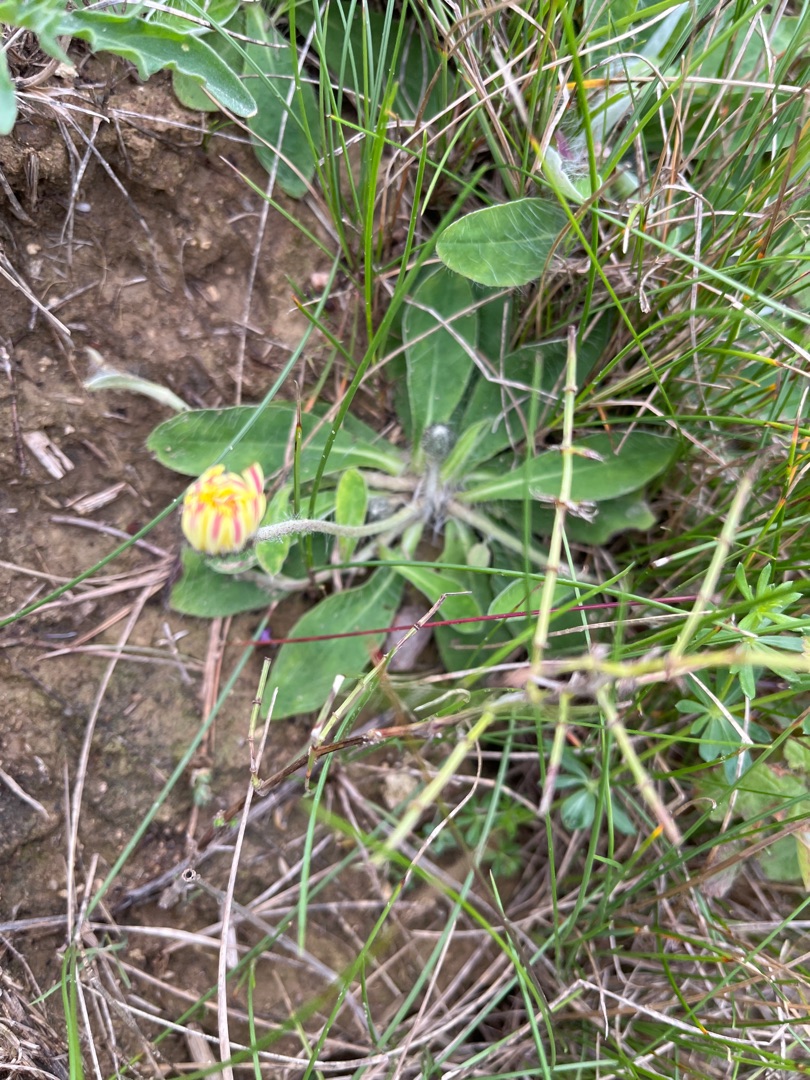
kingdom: Plantae
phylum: Tracheophyta
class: Magnoliopsida
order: Asterales
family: Asteraceae
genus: Pilosella
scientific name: Pilosella officinarum
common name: Håret høgeurt
